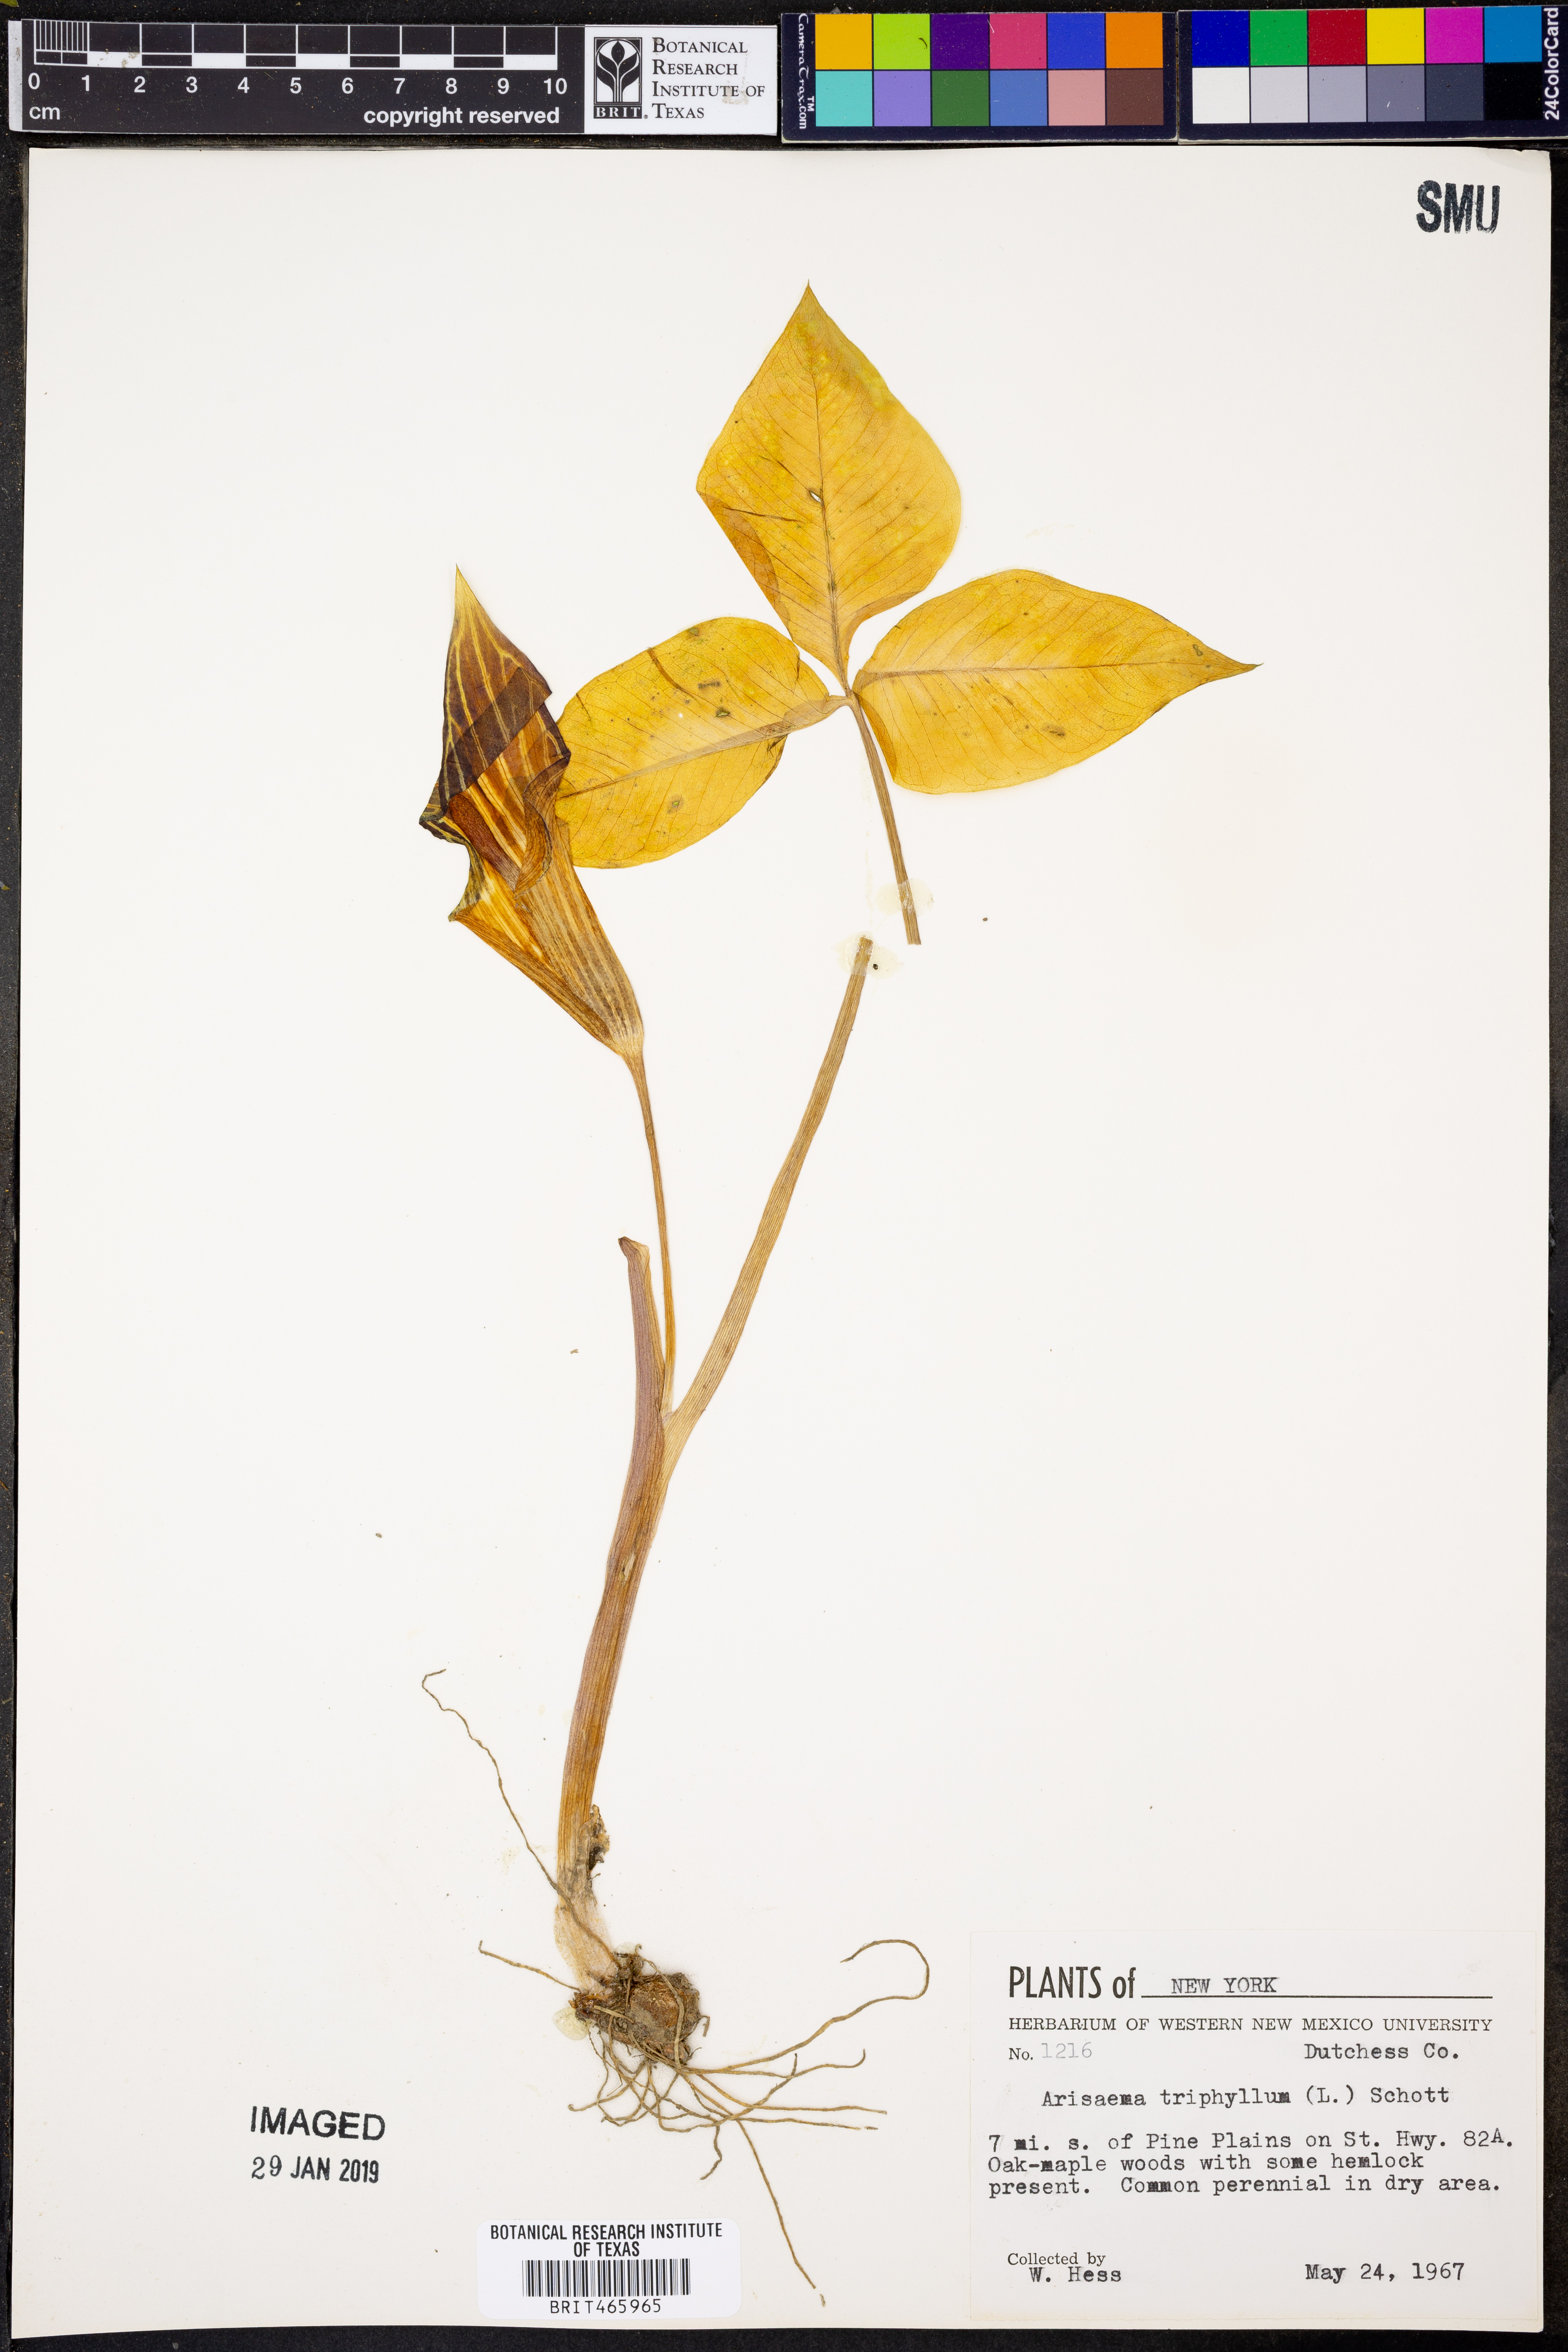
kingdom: Plantae
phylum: Tracheophyta
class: Liliopsida
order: Alismatales
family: Araceae
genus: Arisaema
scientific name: Arisaema triphyllum
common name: Jack-in-the-pulpit
